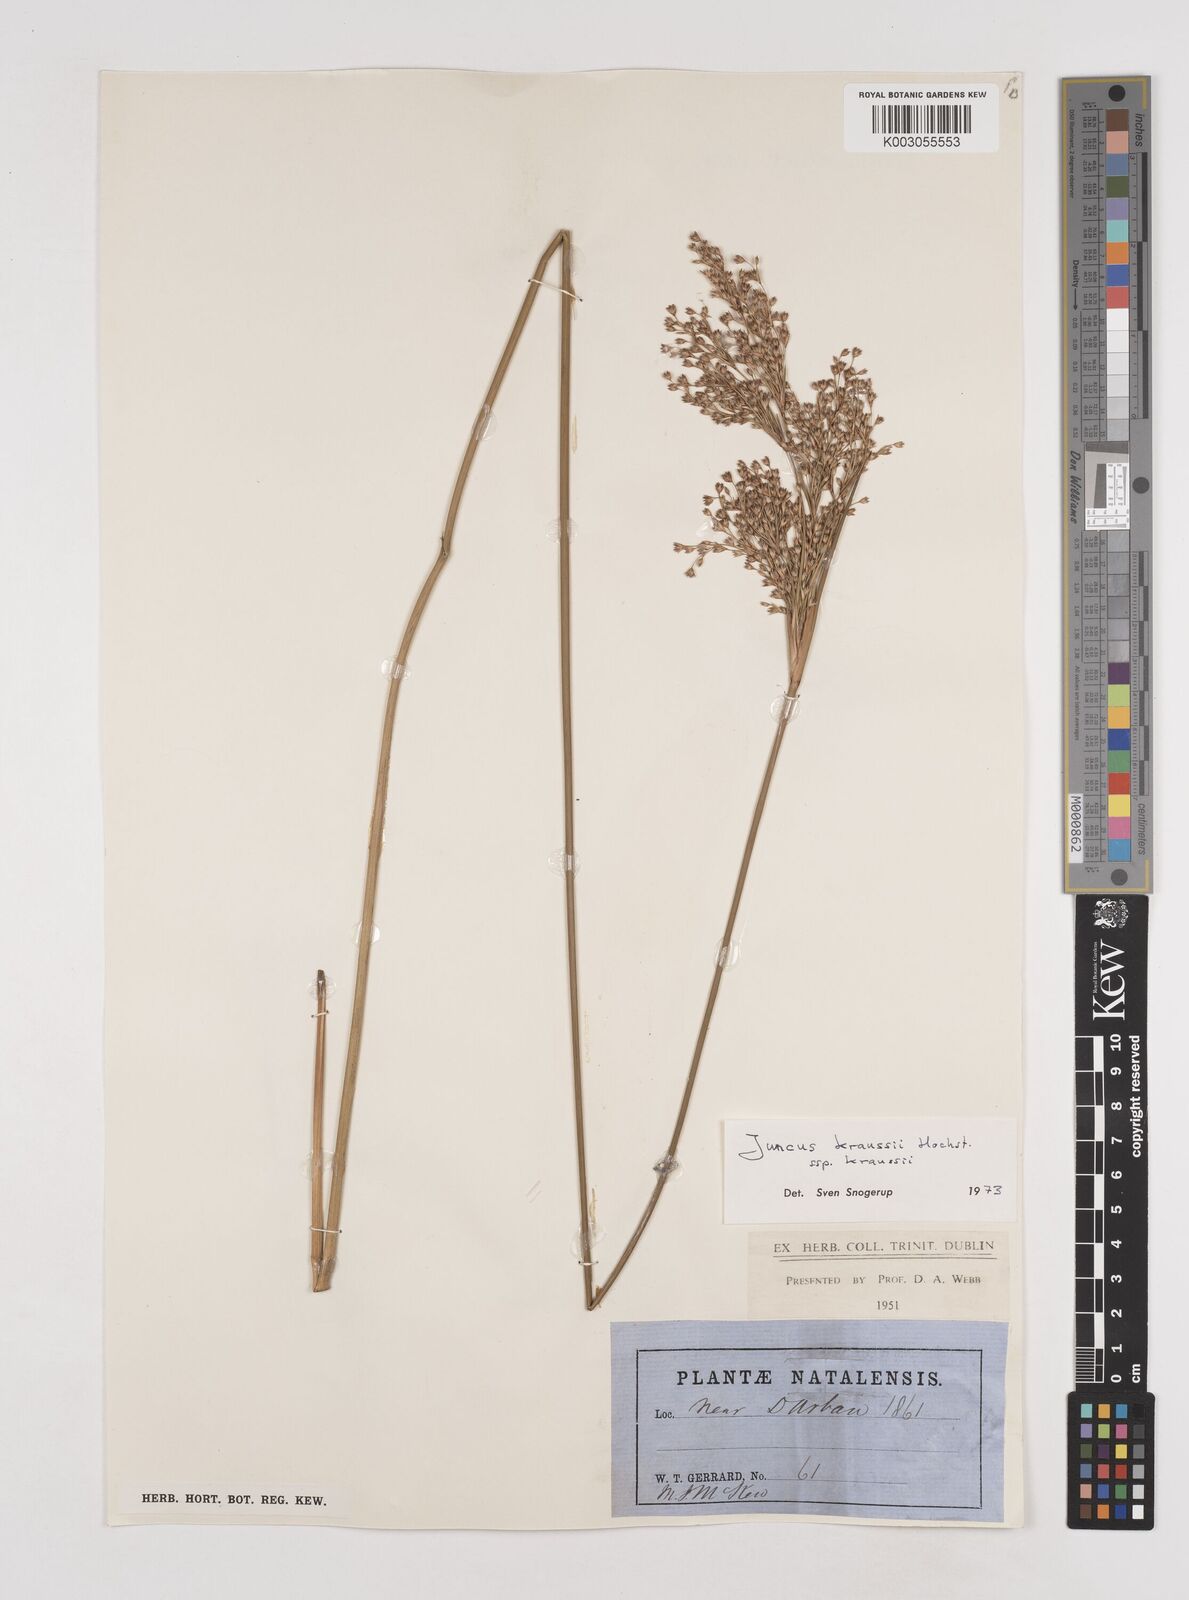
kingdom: Plantae
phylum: Tracheophyta
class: Liliopsida
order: Poales
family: Juncaceae
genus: Juncus
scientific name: Juncus kraussii
